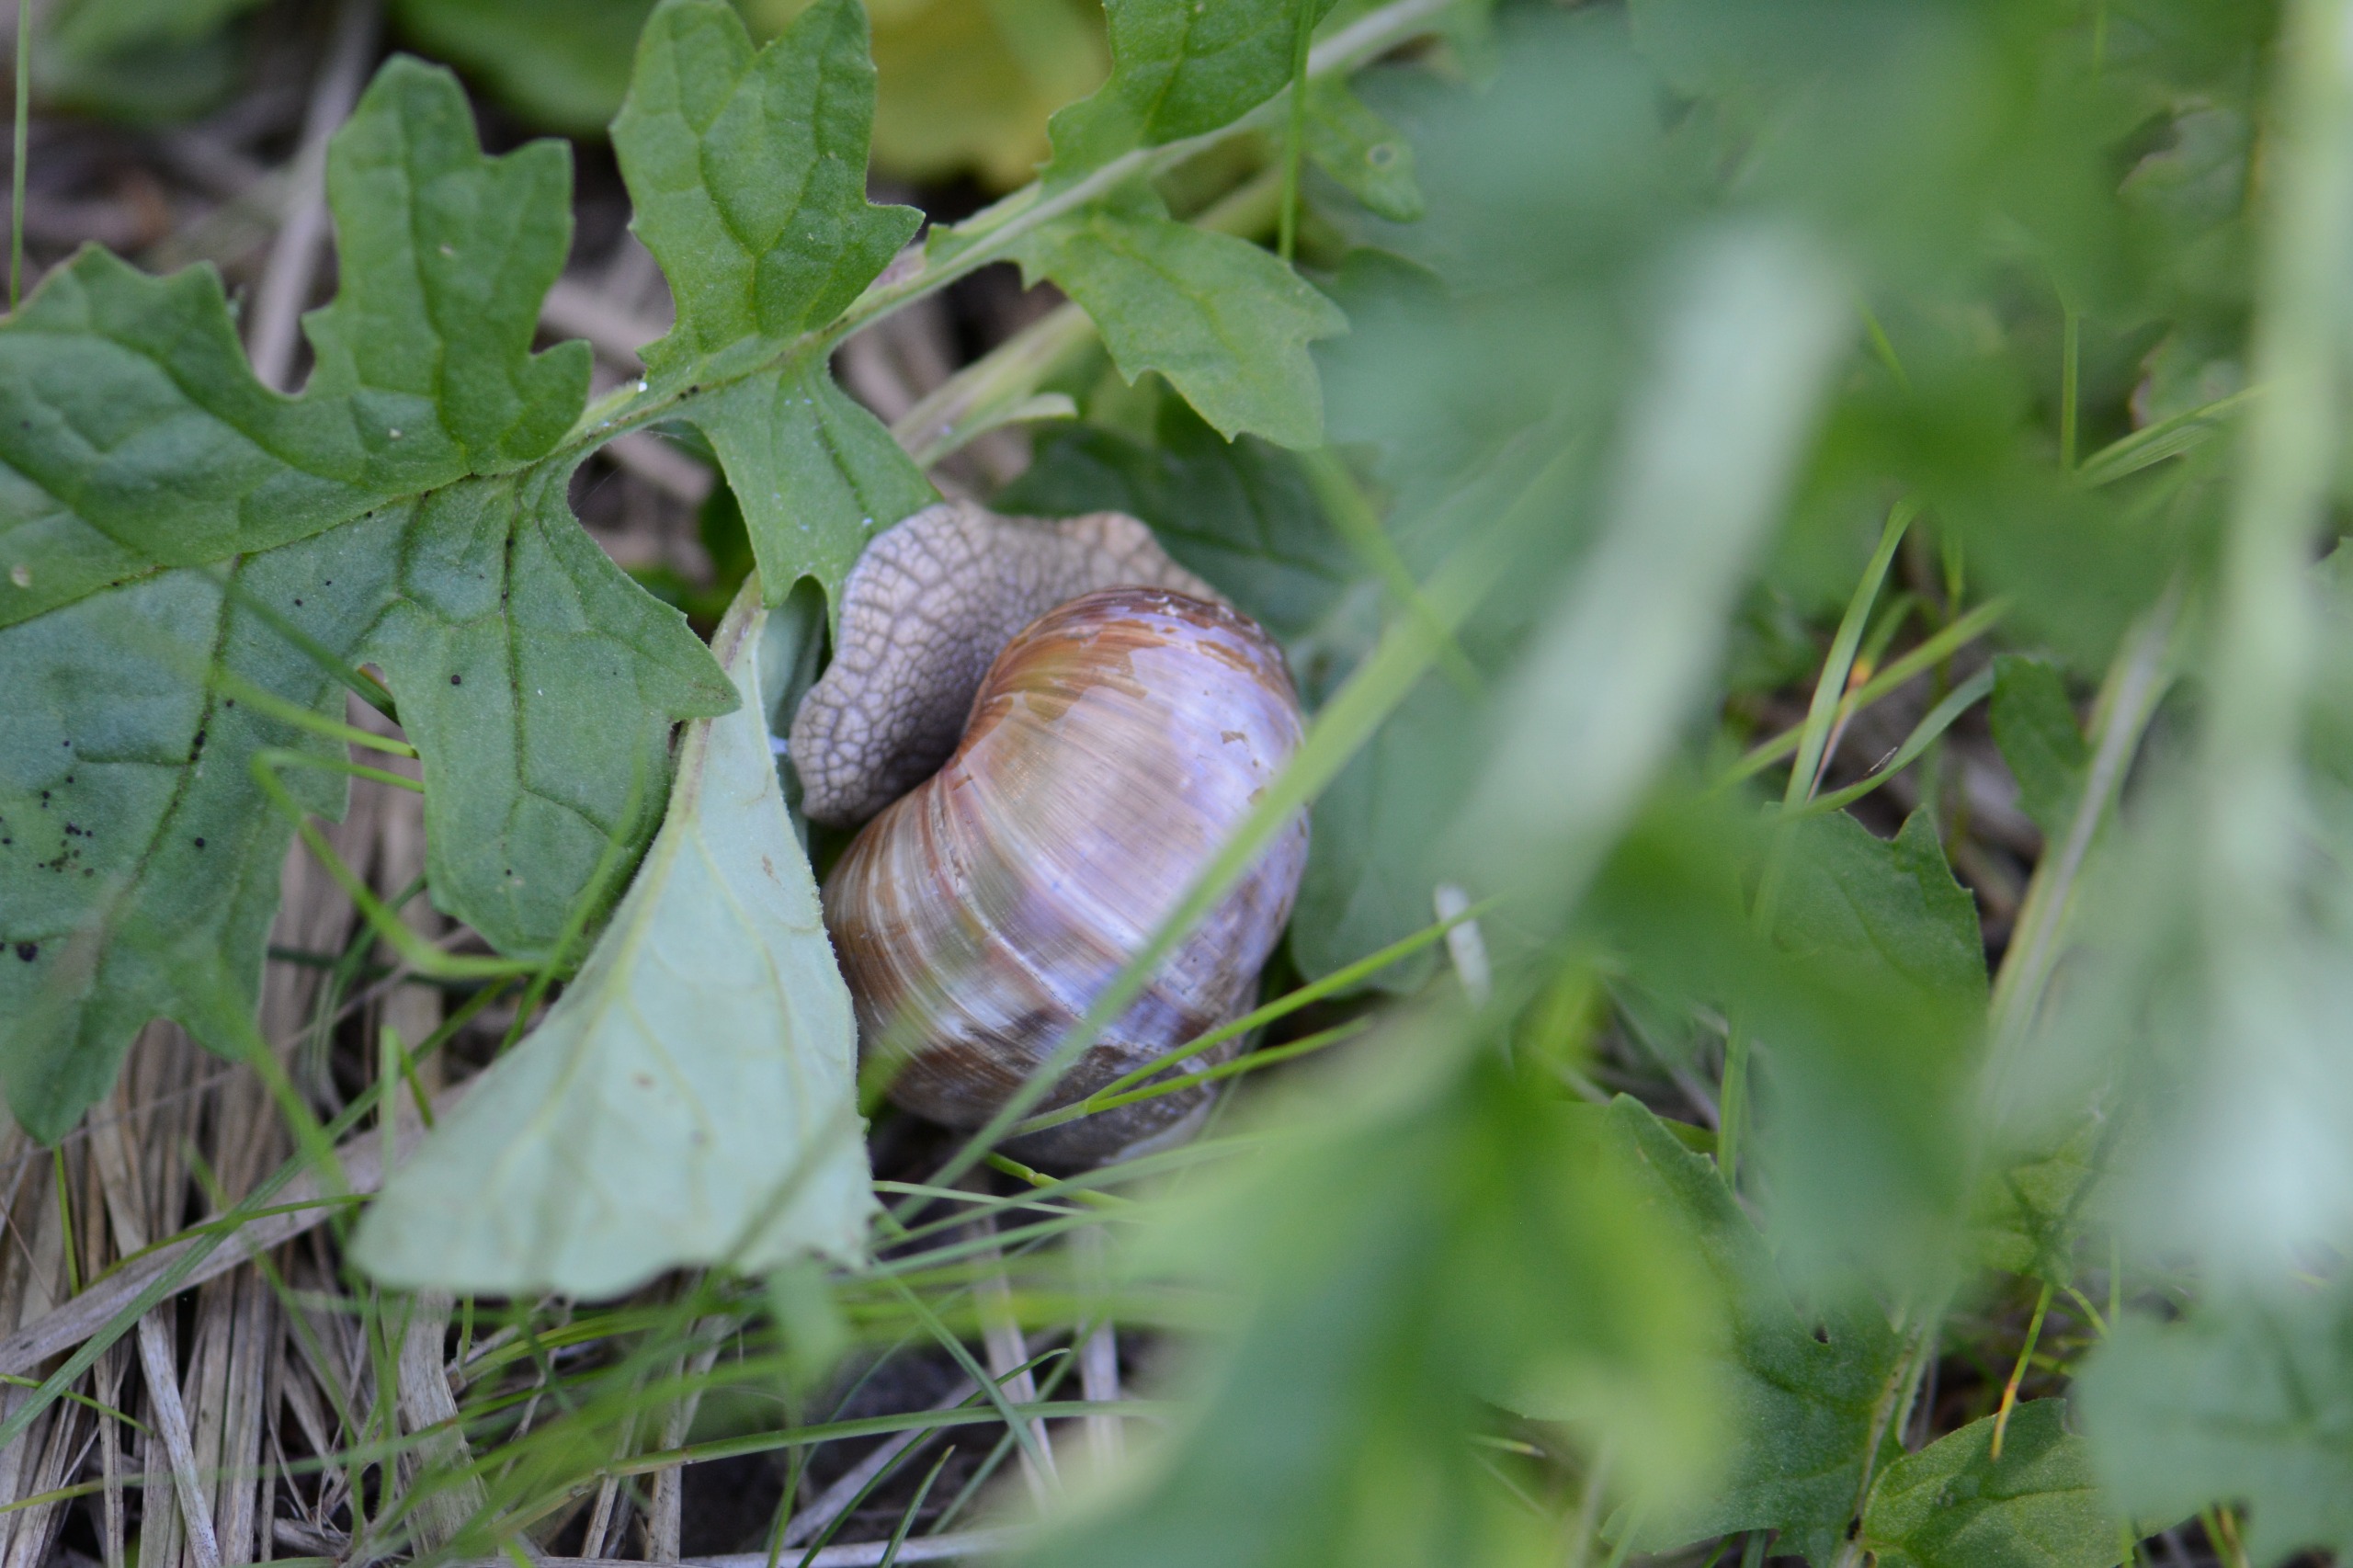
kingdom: Animalia
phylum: Mollusca
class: Gastropoda
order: Stylommatophora
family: Helicidae
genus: Helix
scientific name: Helix pomatia
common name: Vinbjergsnegl
